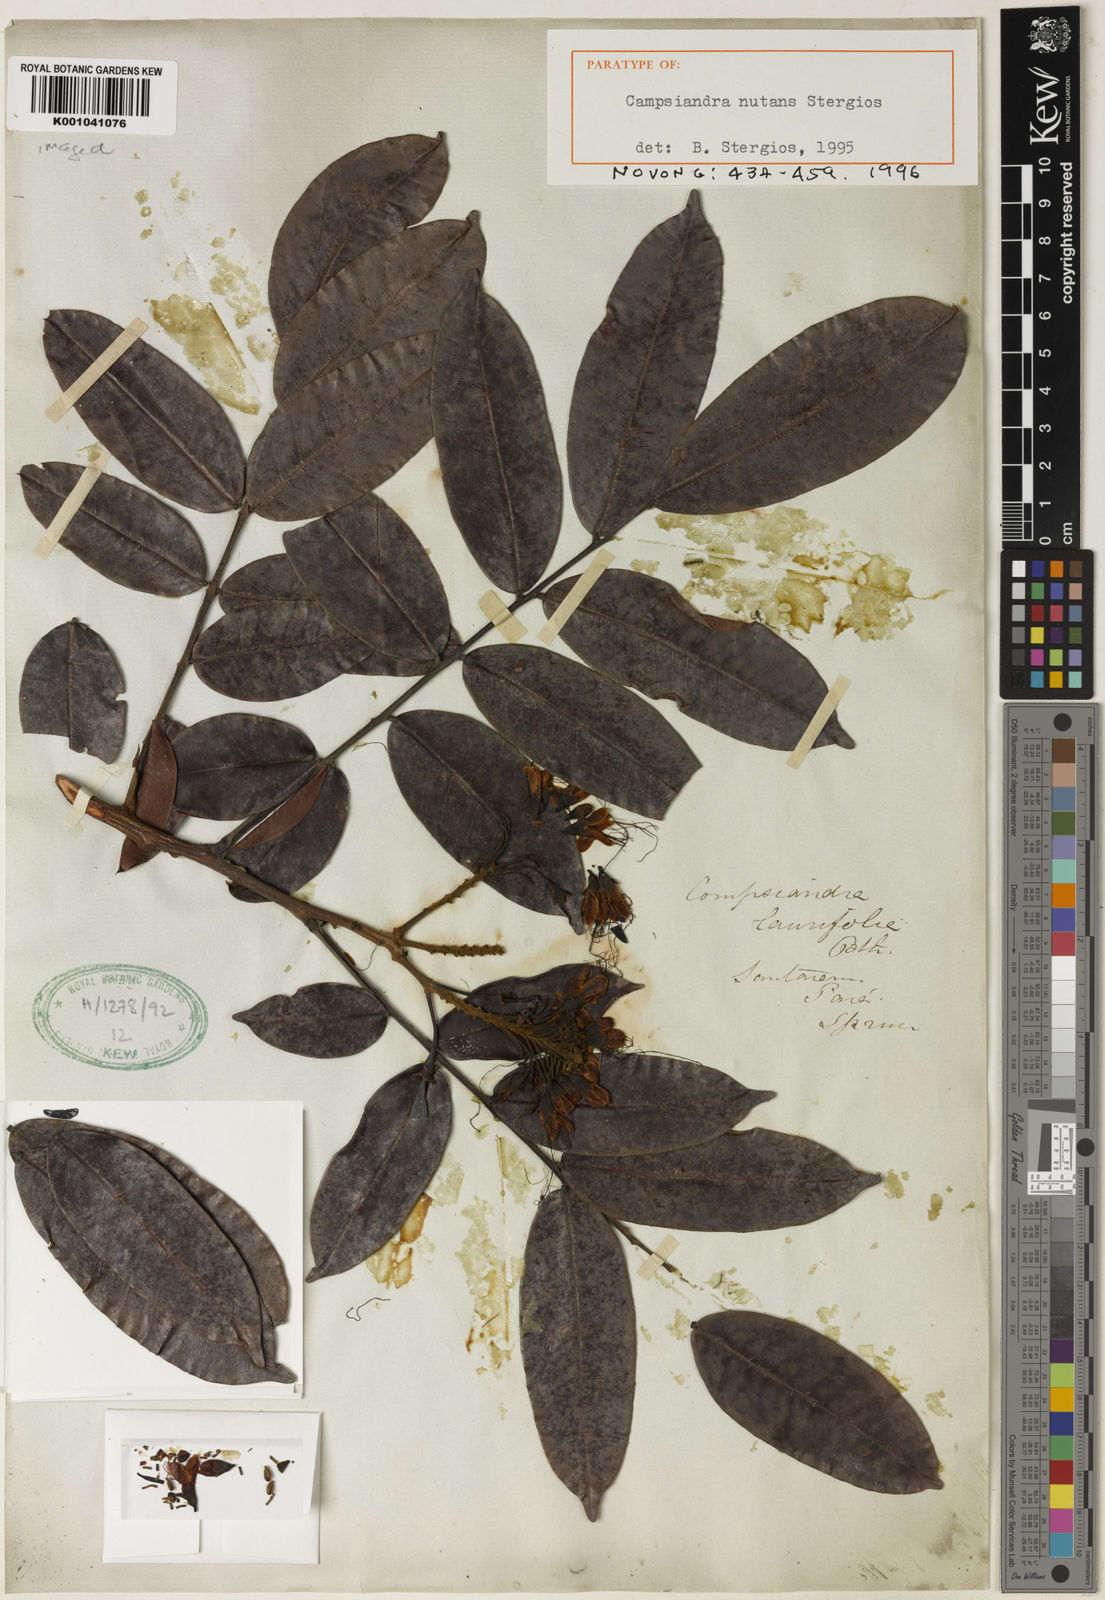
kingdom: Plantae
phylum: Tracheophyta
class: Magnoliopsida
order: Fabales
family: Fabaceae
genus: Campsiandra
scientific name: Campsiandra nutans
